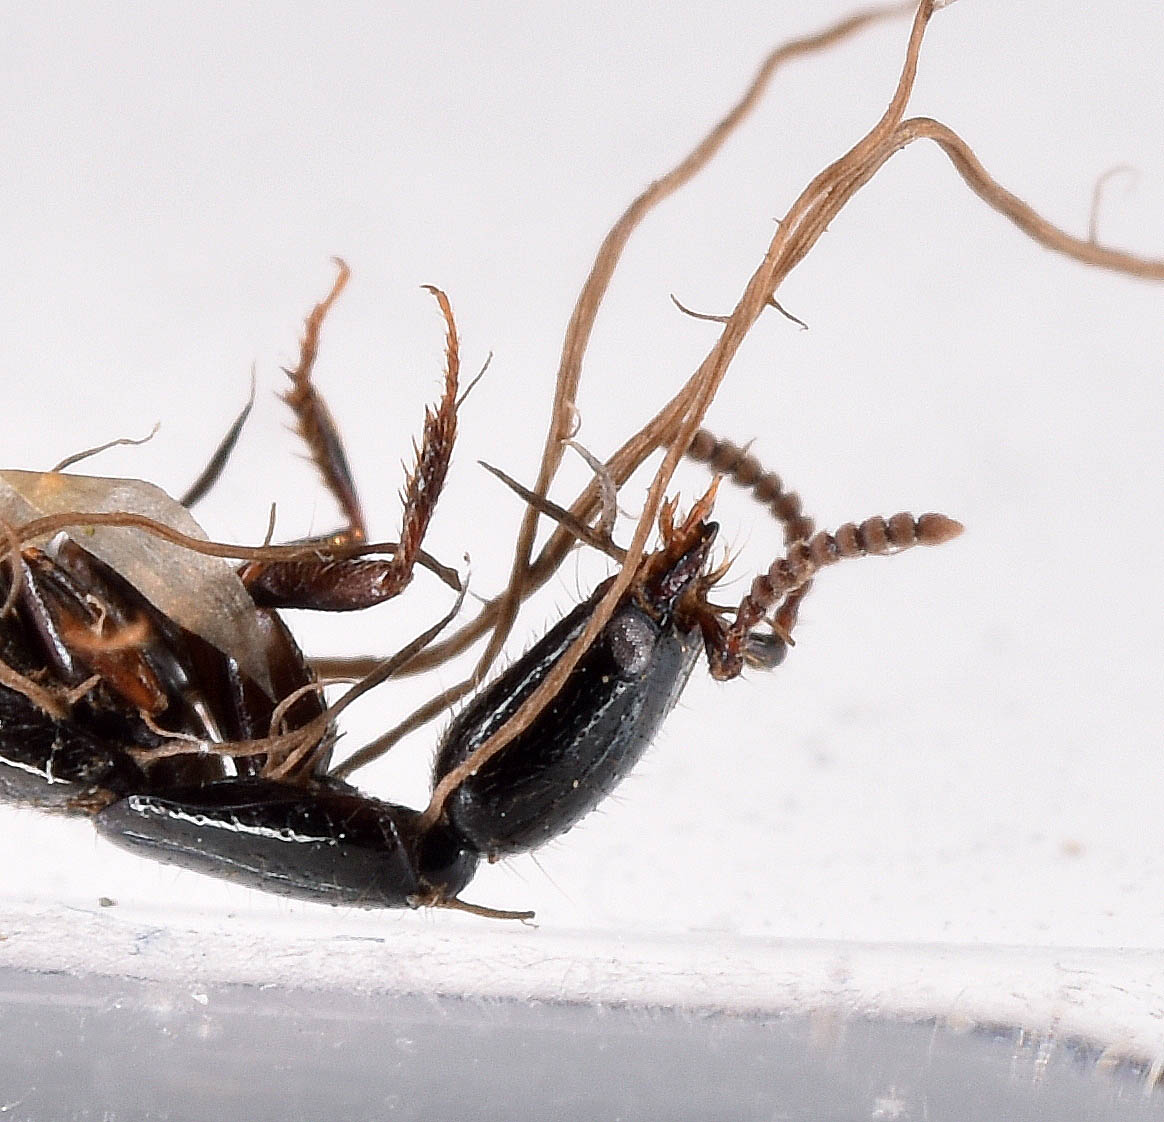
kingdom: Fungi
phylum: Ascomycota
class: Sordariomycetes
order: Hypocreales
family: Ophiocordycipitaceae
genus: Hirsutella
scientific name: Hirsutella
